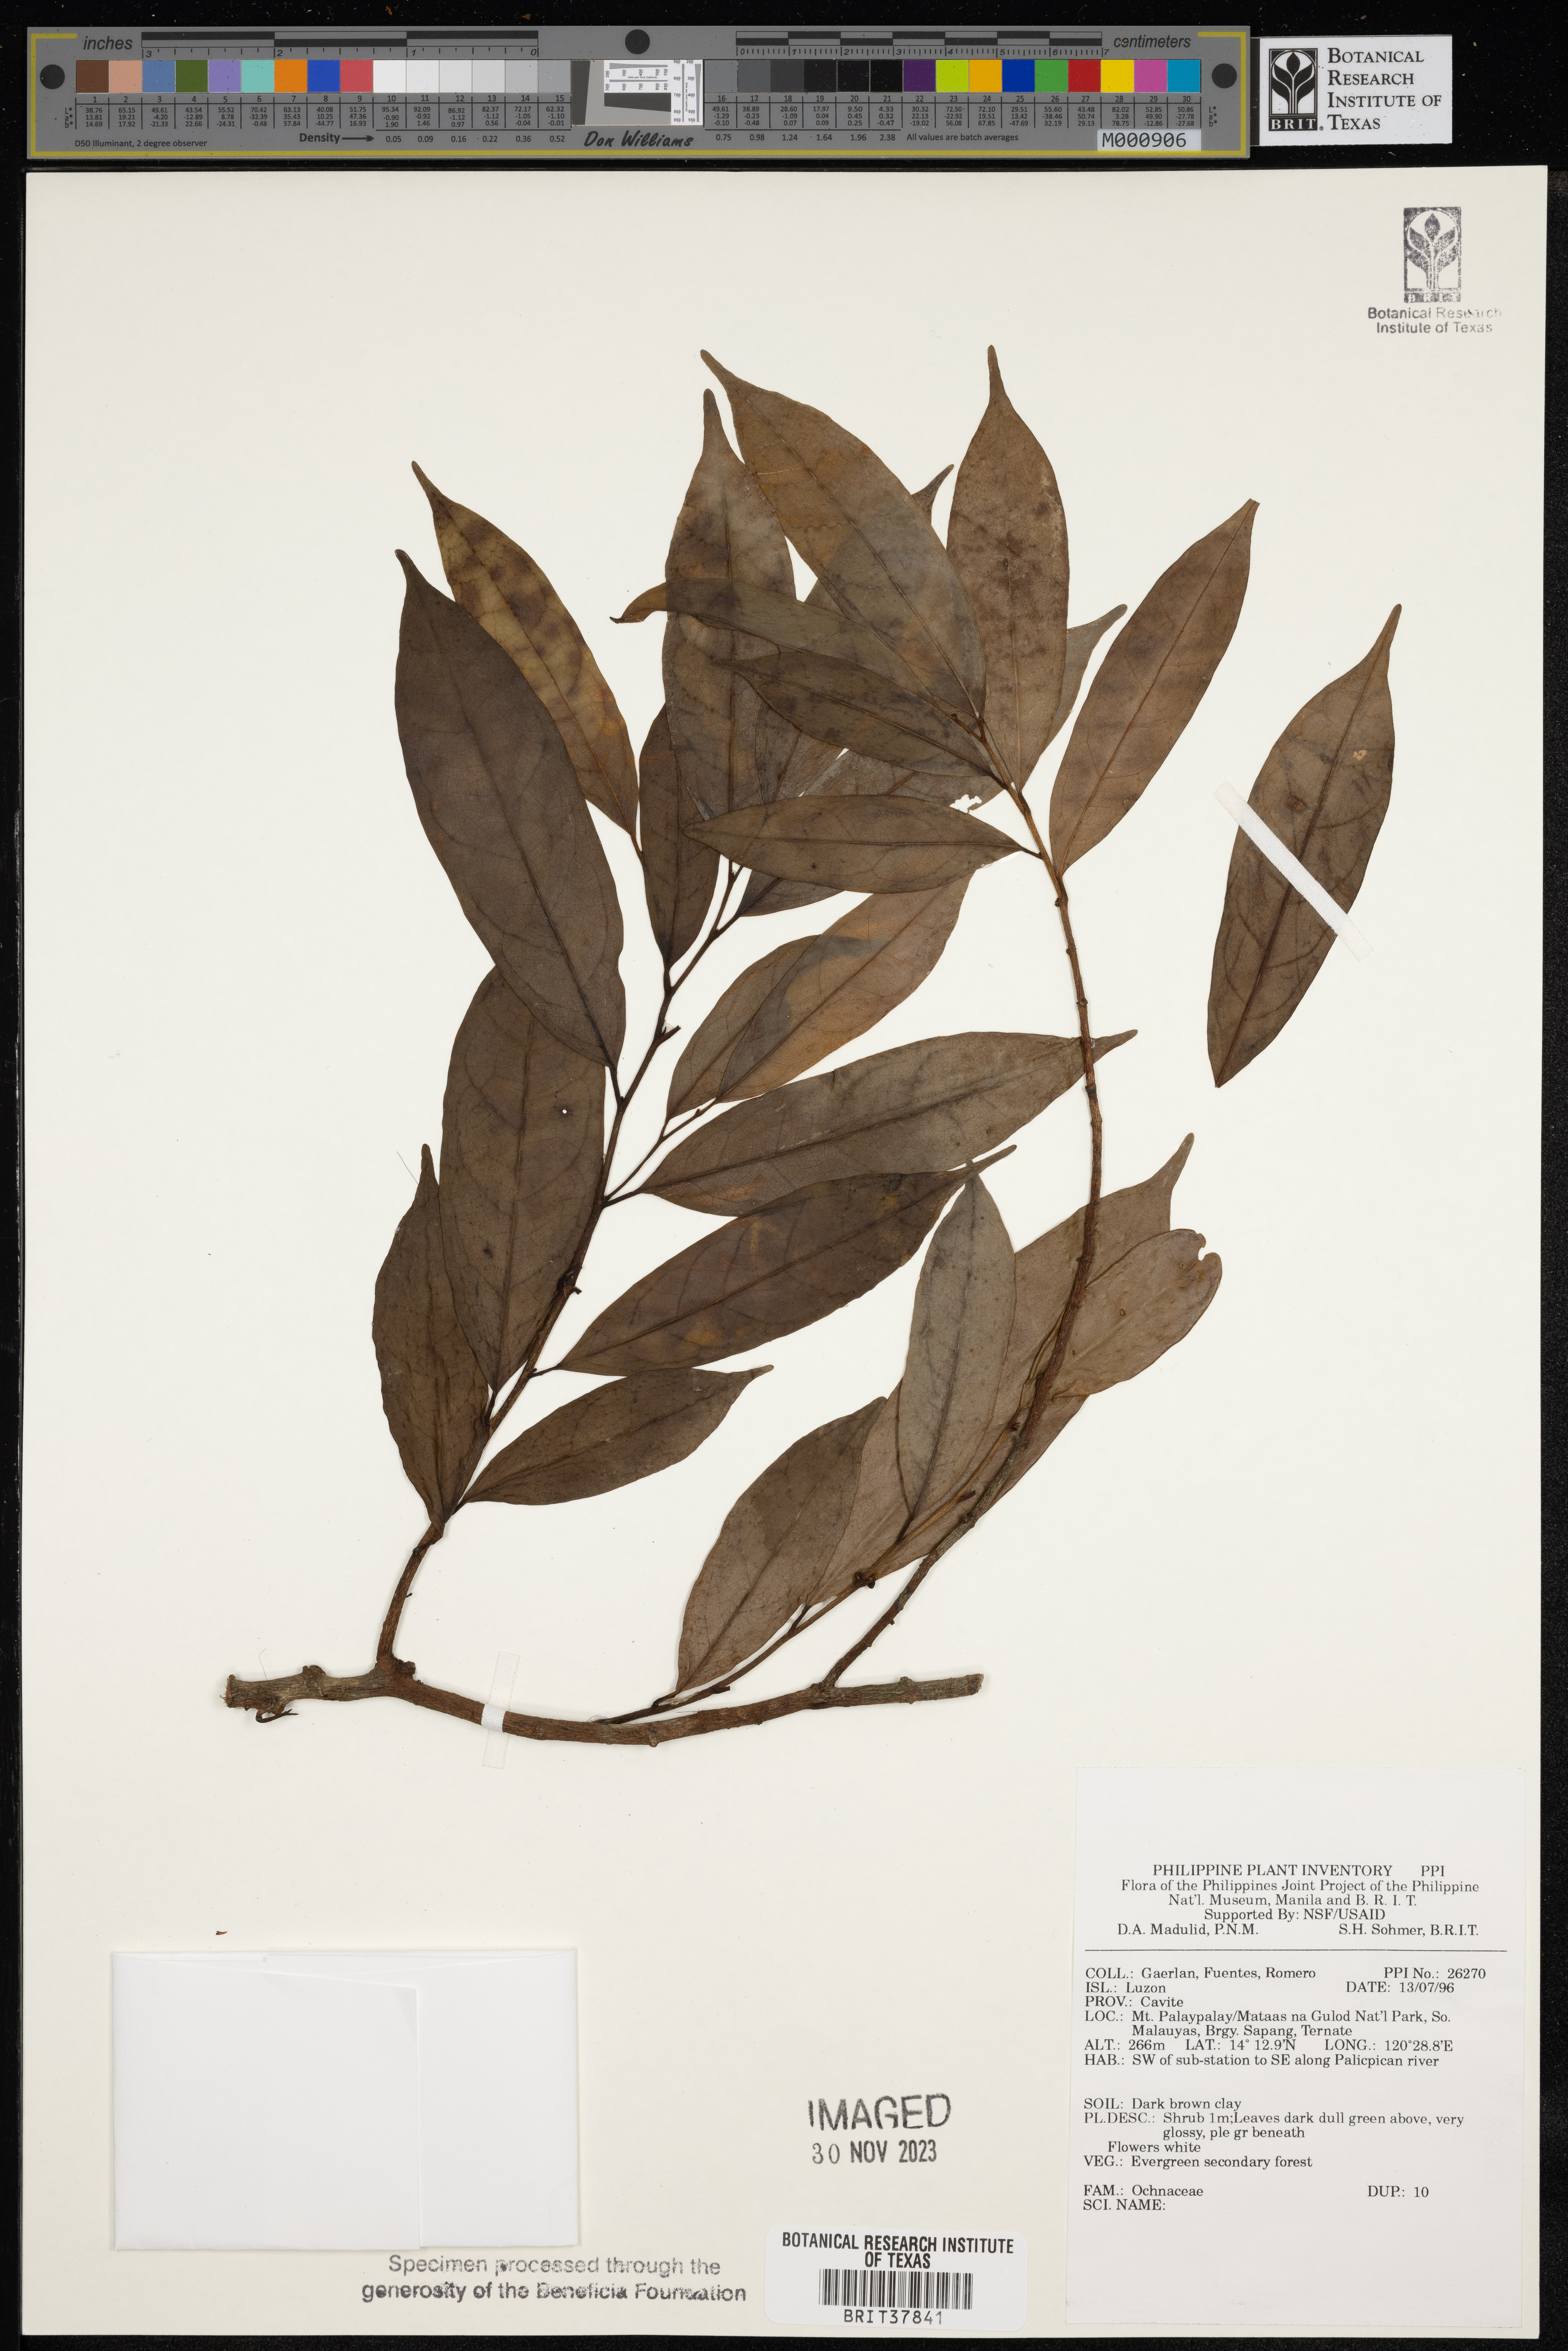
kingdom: Plantae
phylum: Tracheophyta
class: Magnoliopsida
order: Malpighiales
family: Ochnaceae
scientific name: Ochnaceae
